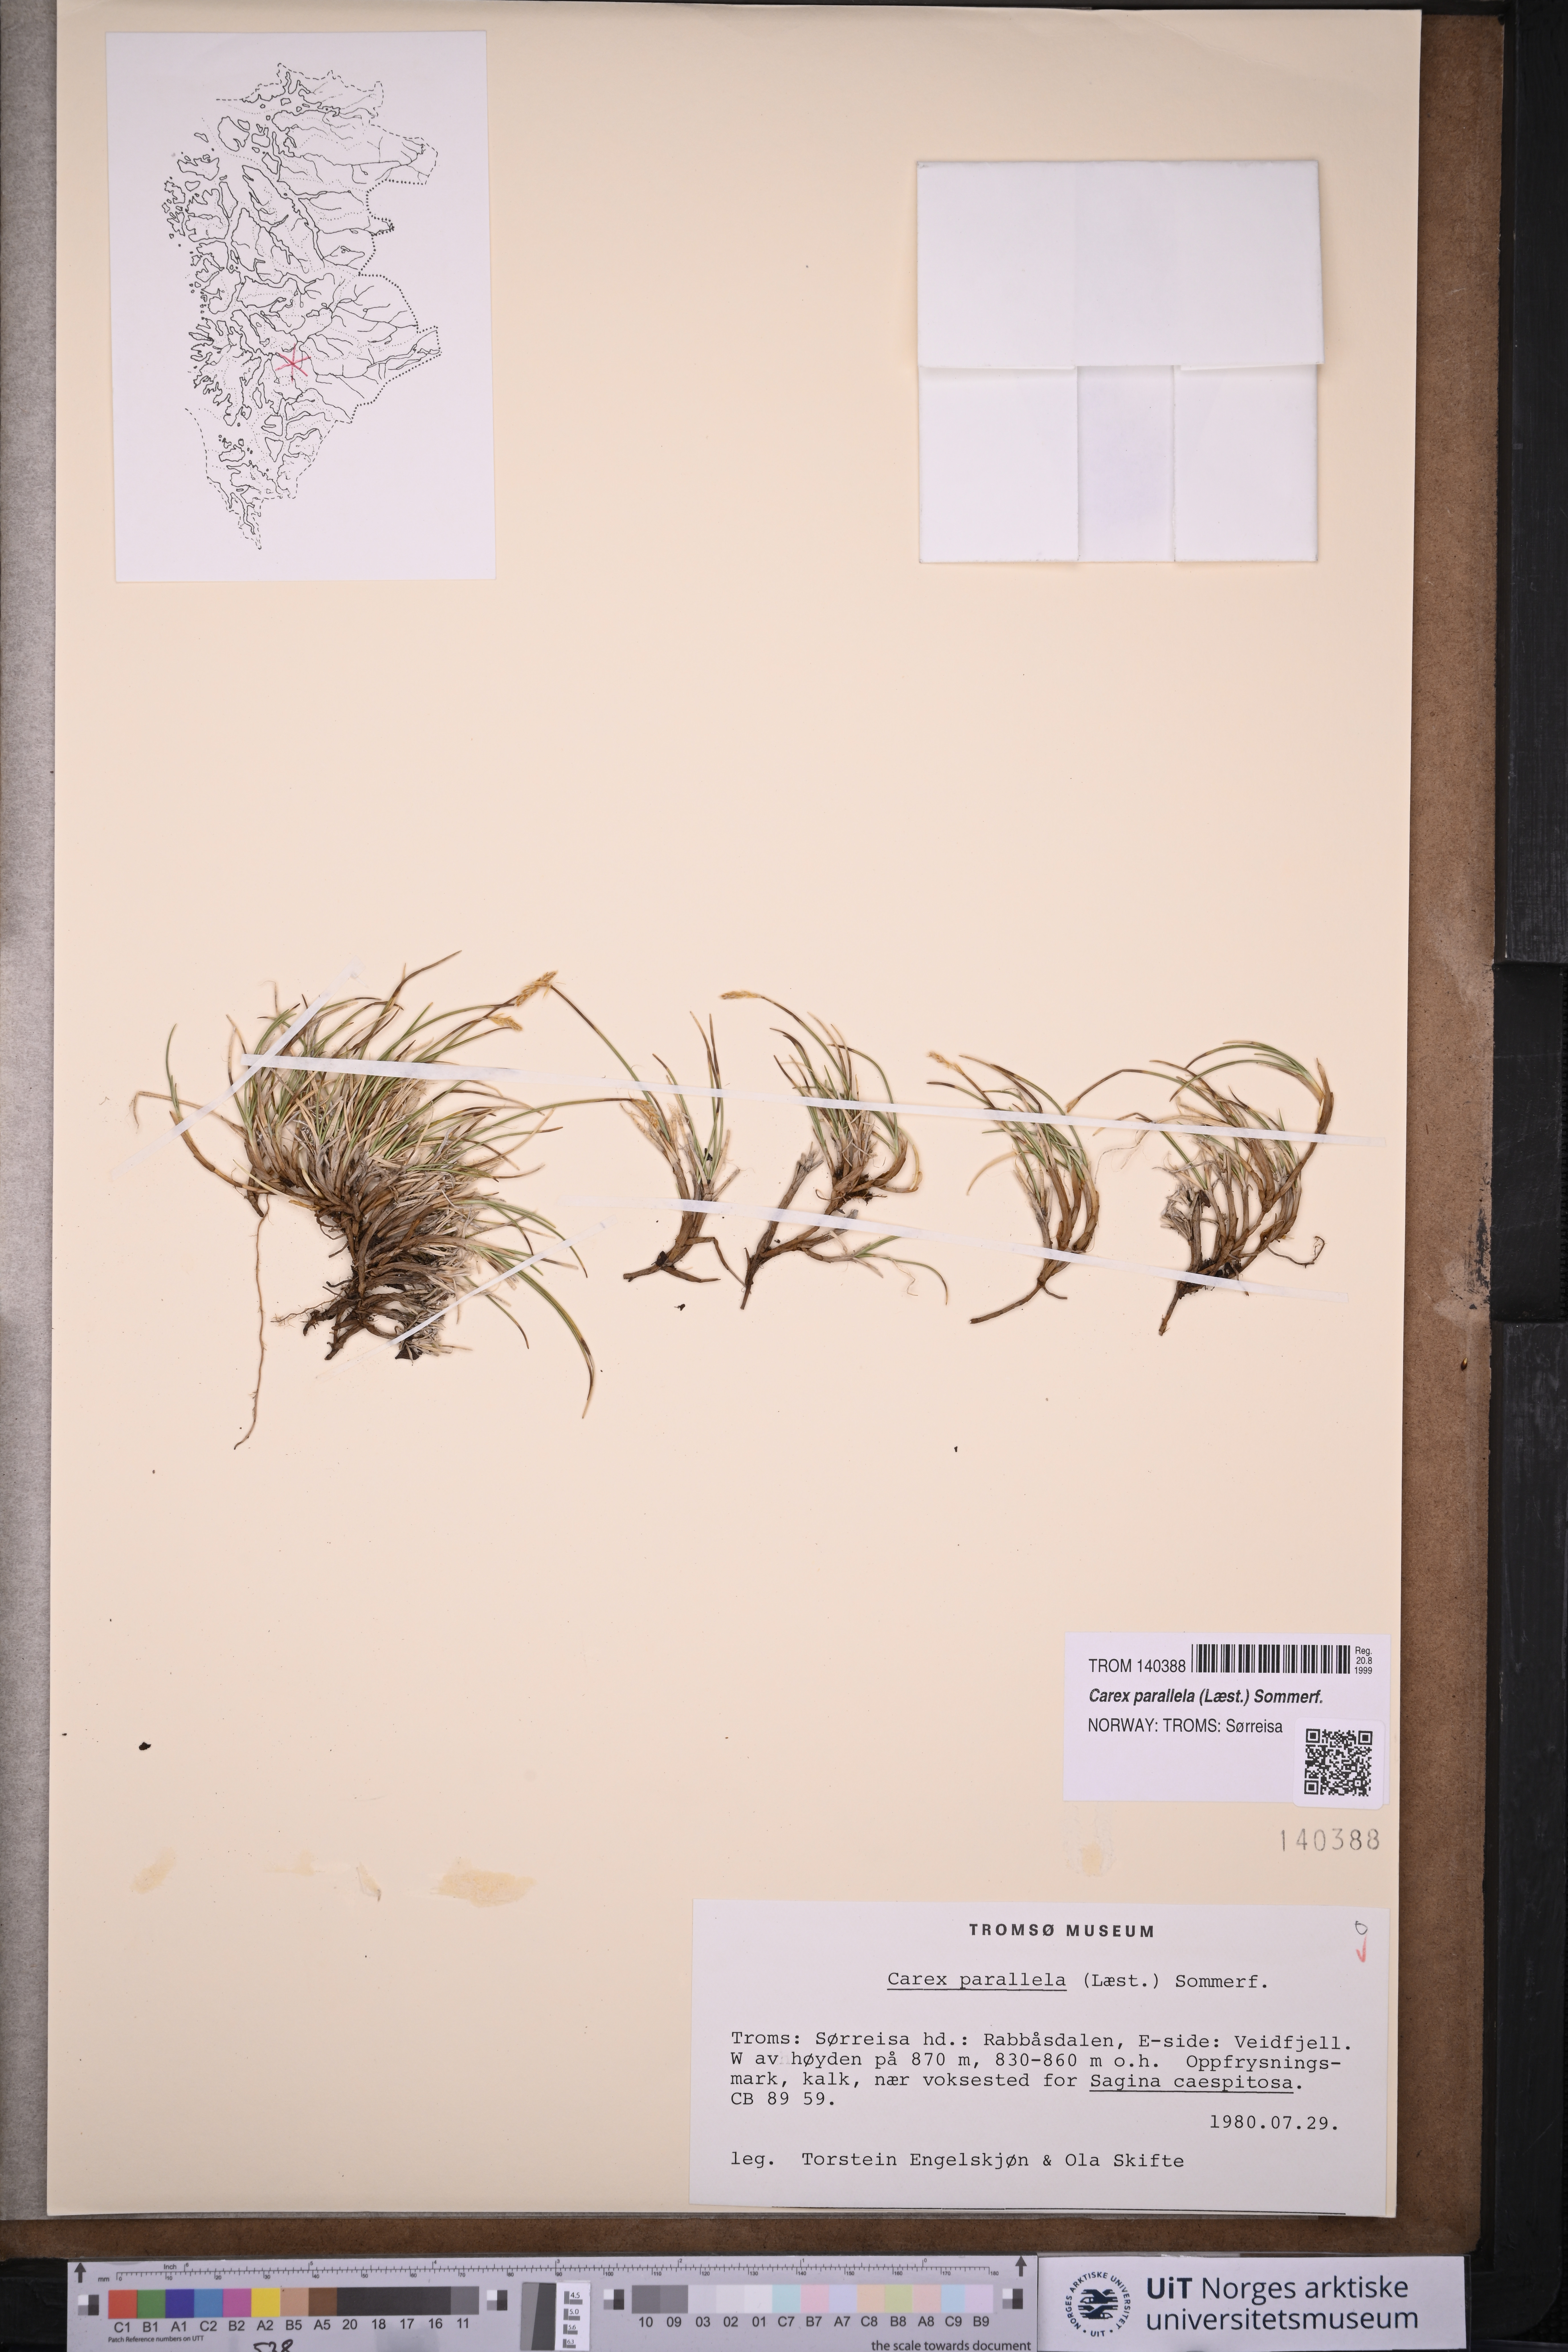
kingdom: Plantae
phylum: Tracheophyta
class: Liliopsida
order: Poales
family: Cyperaceae
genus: Carex
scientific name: Carex parallela
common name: Parallel sedge
